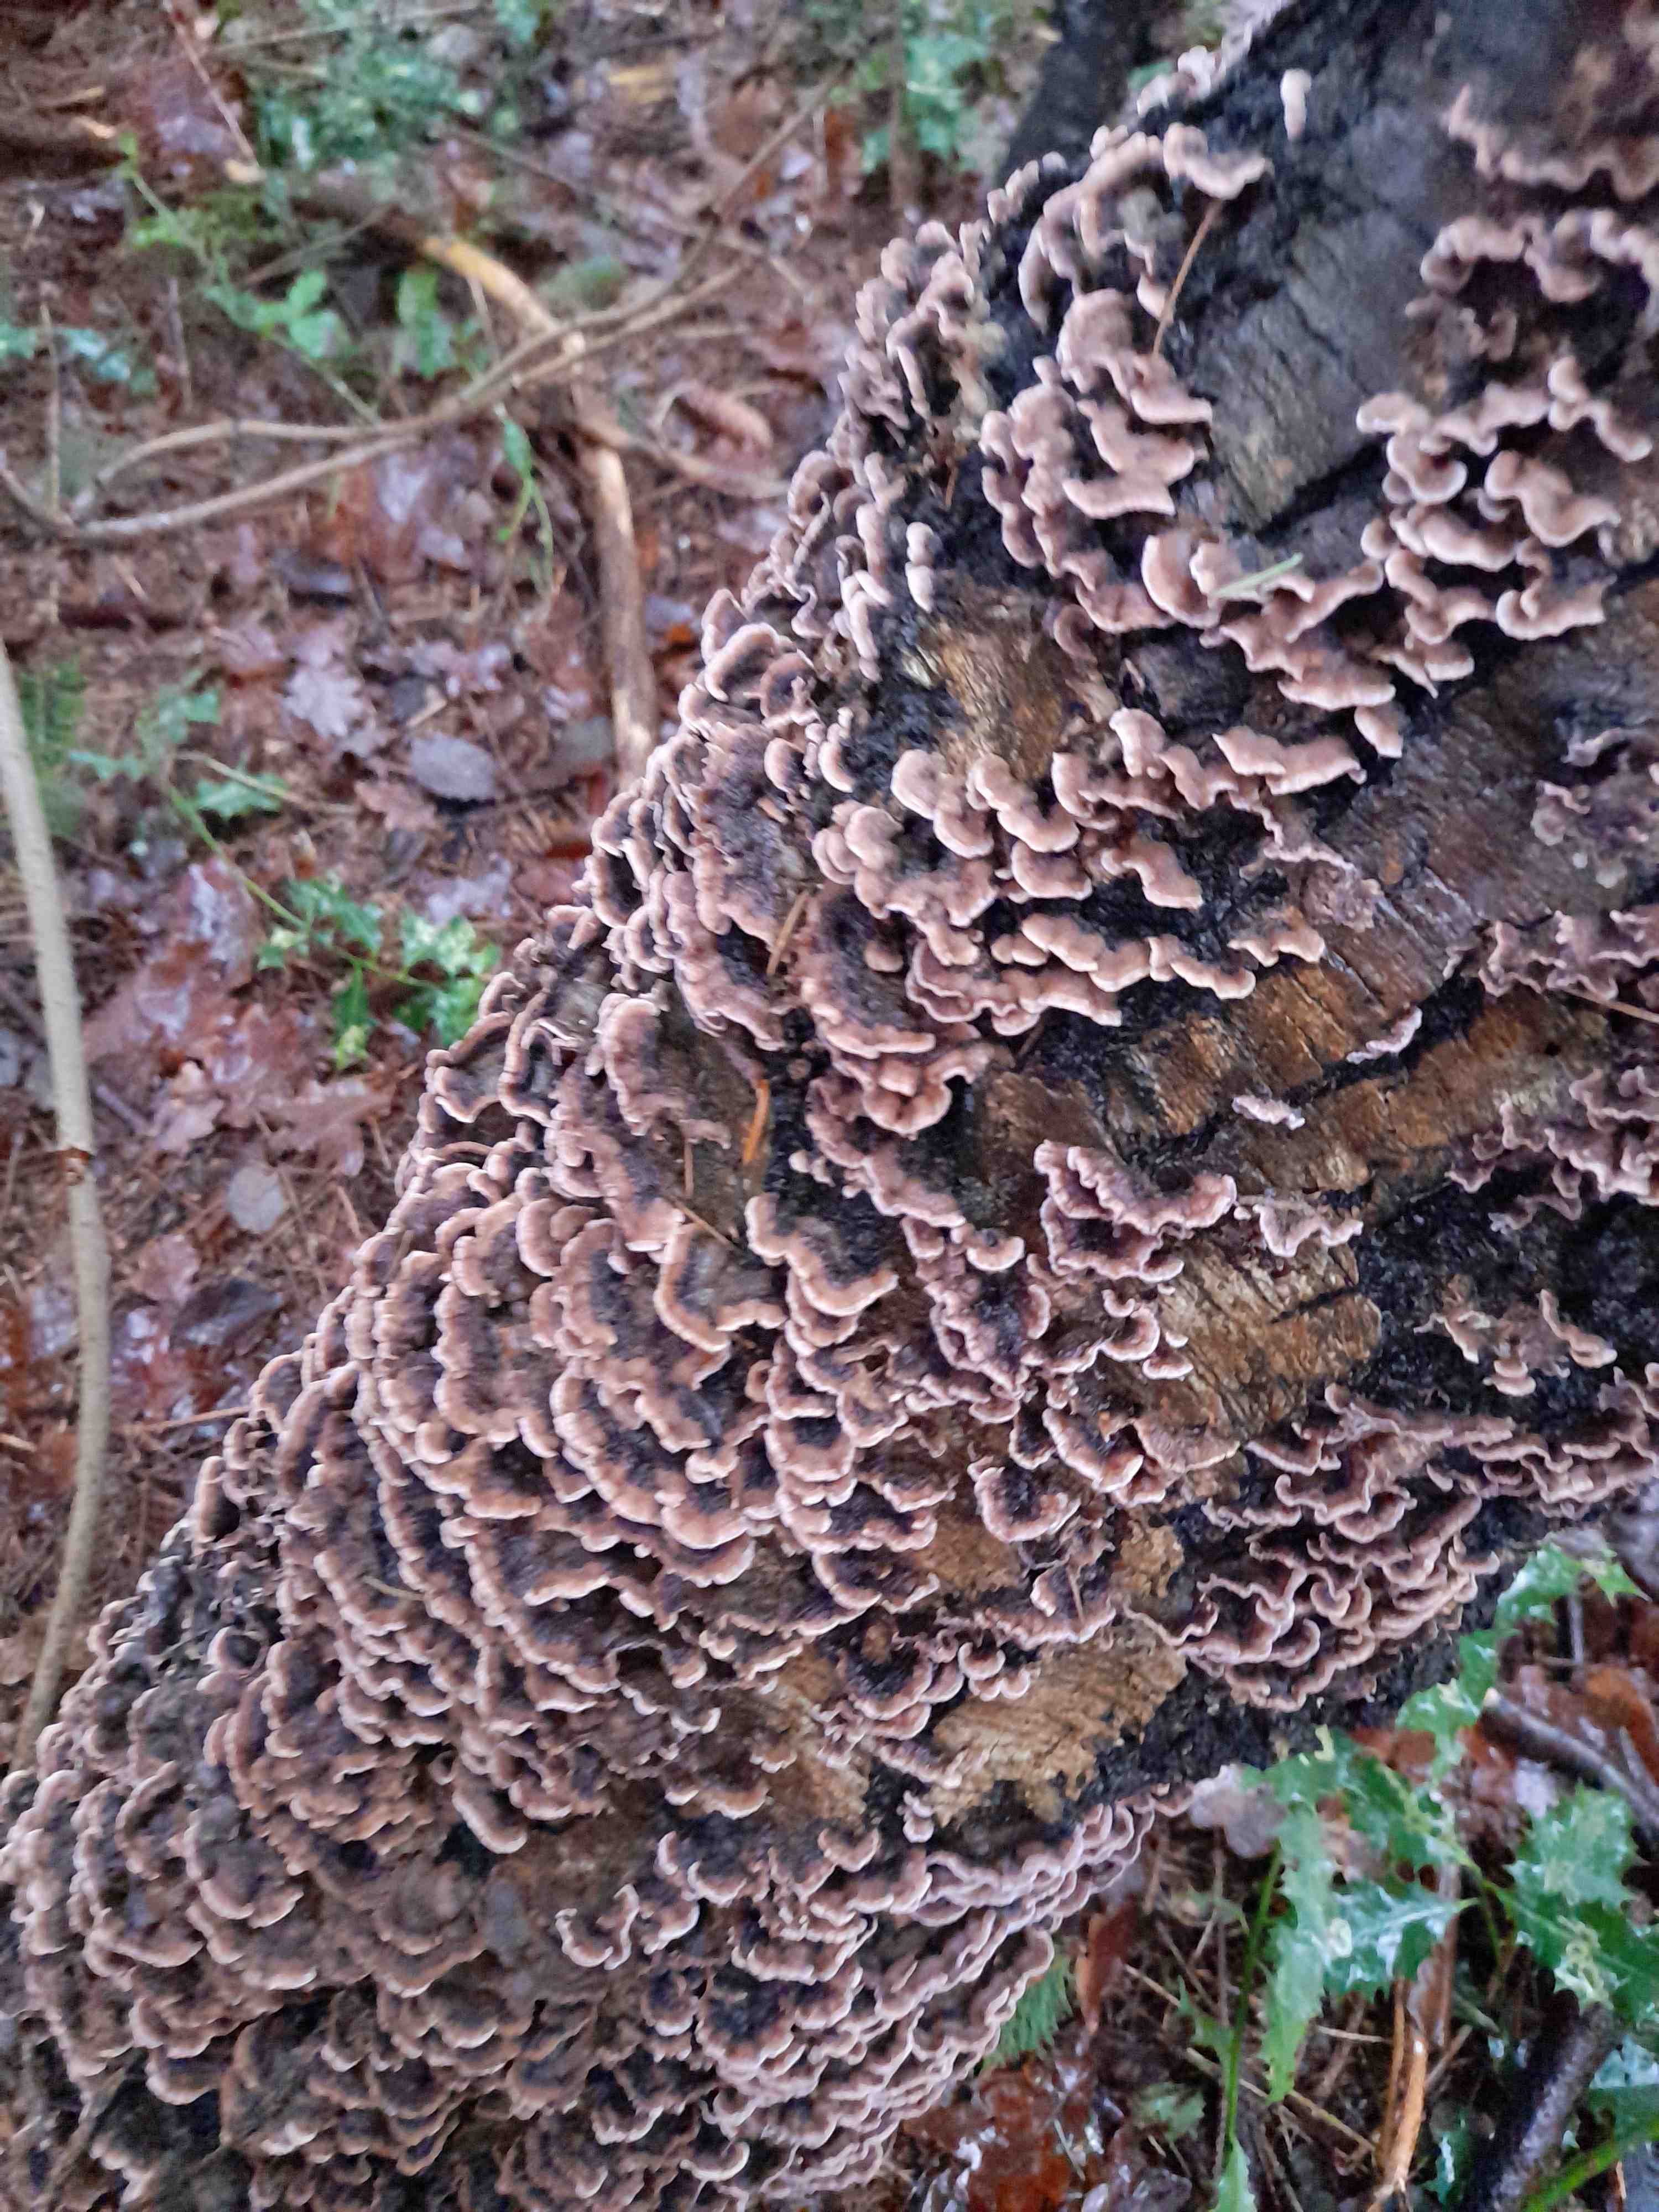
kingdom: Fungi
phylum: Basidiomycota
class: Agaricomycetes
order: Agaricales
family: Cyphellaceae
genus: Chondrostereum
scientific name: Chondrostereum purpureum
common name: purpurlædersvamp
